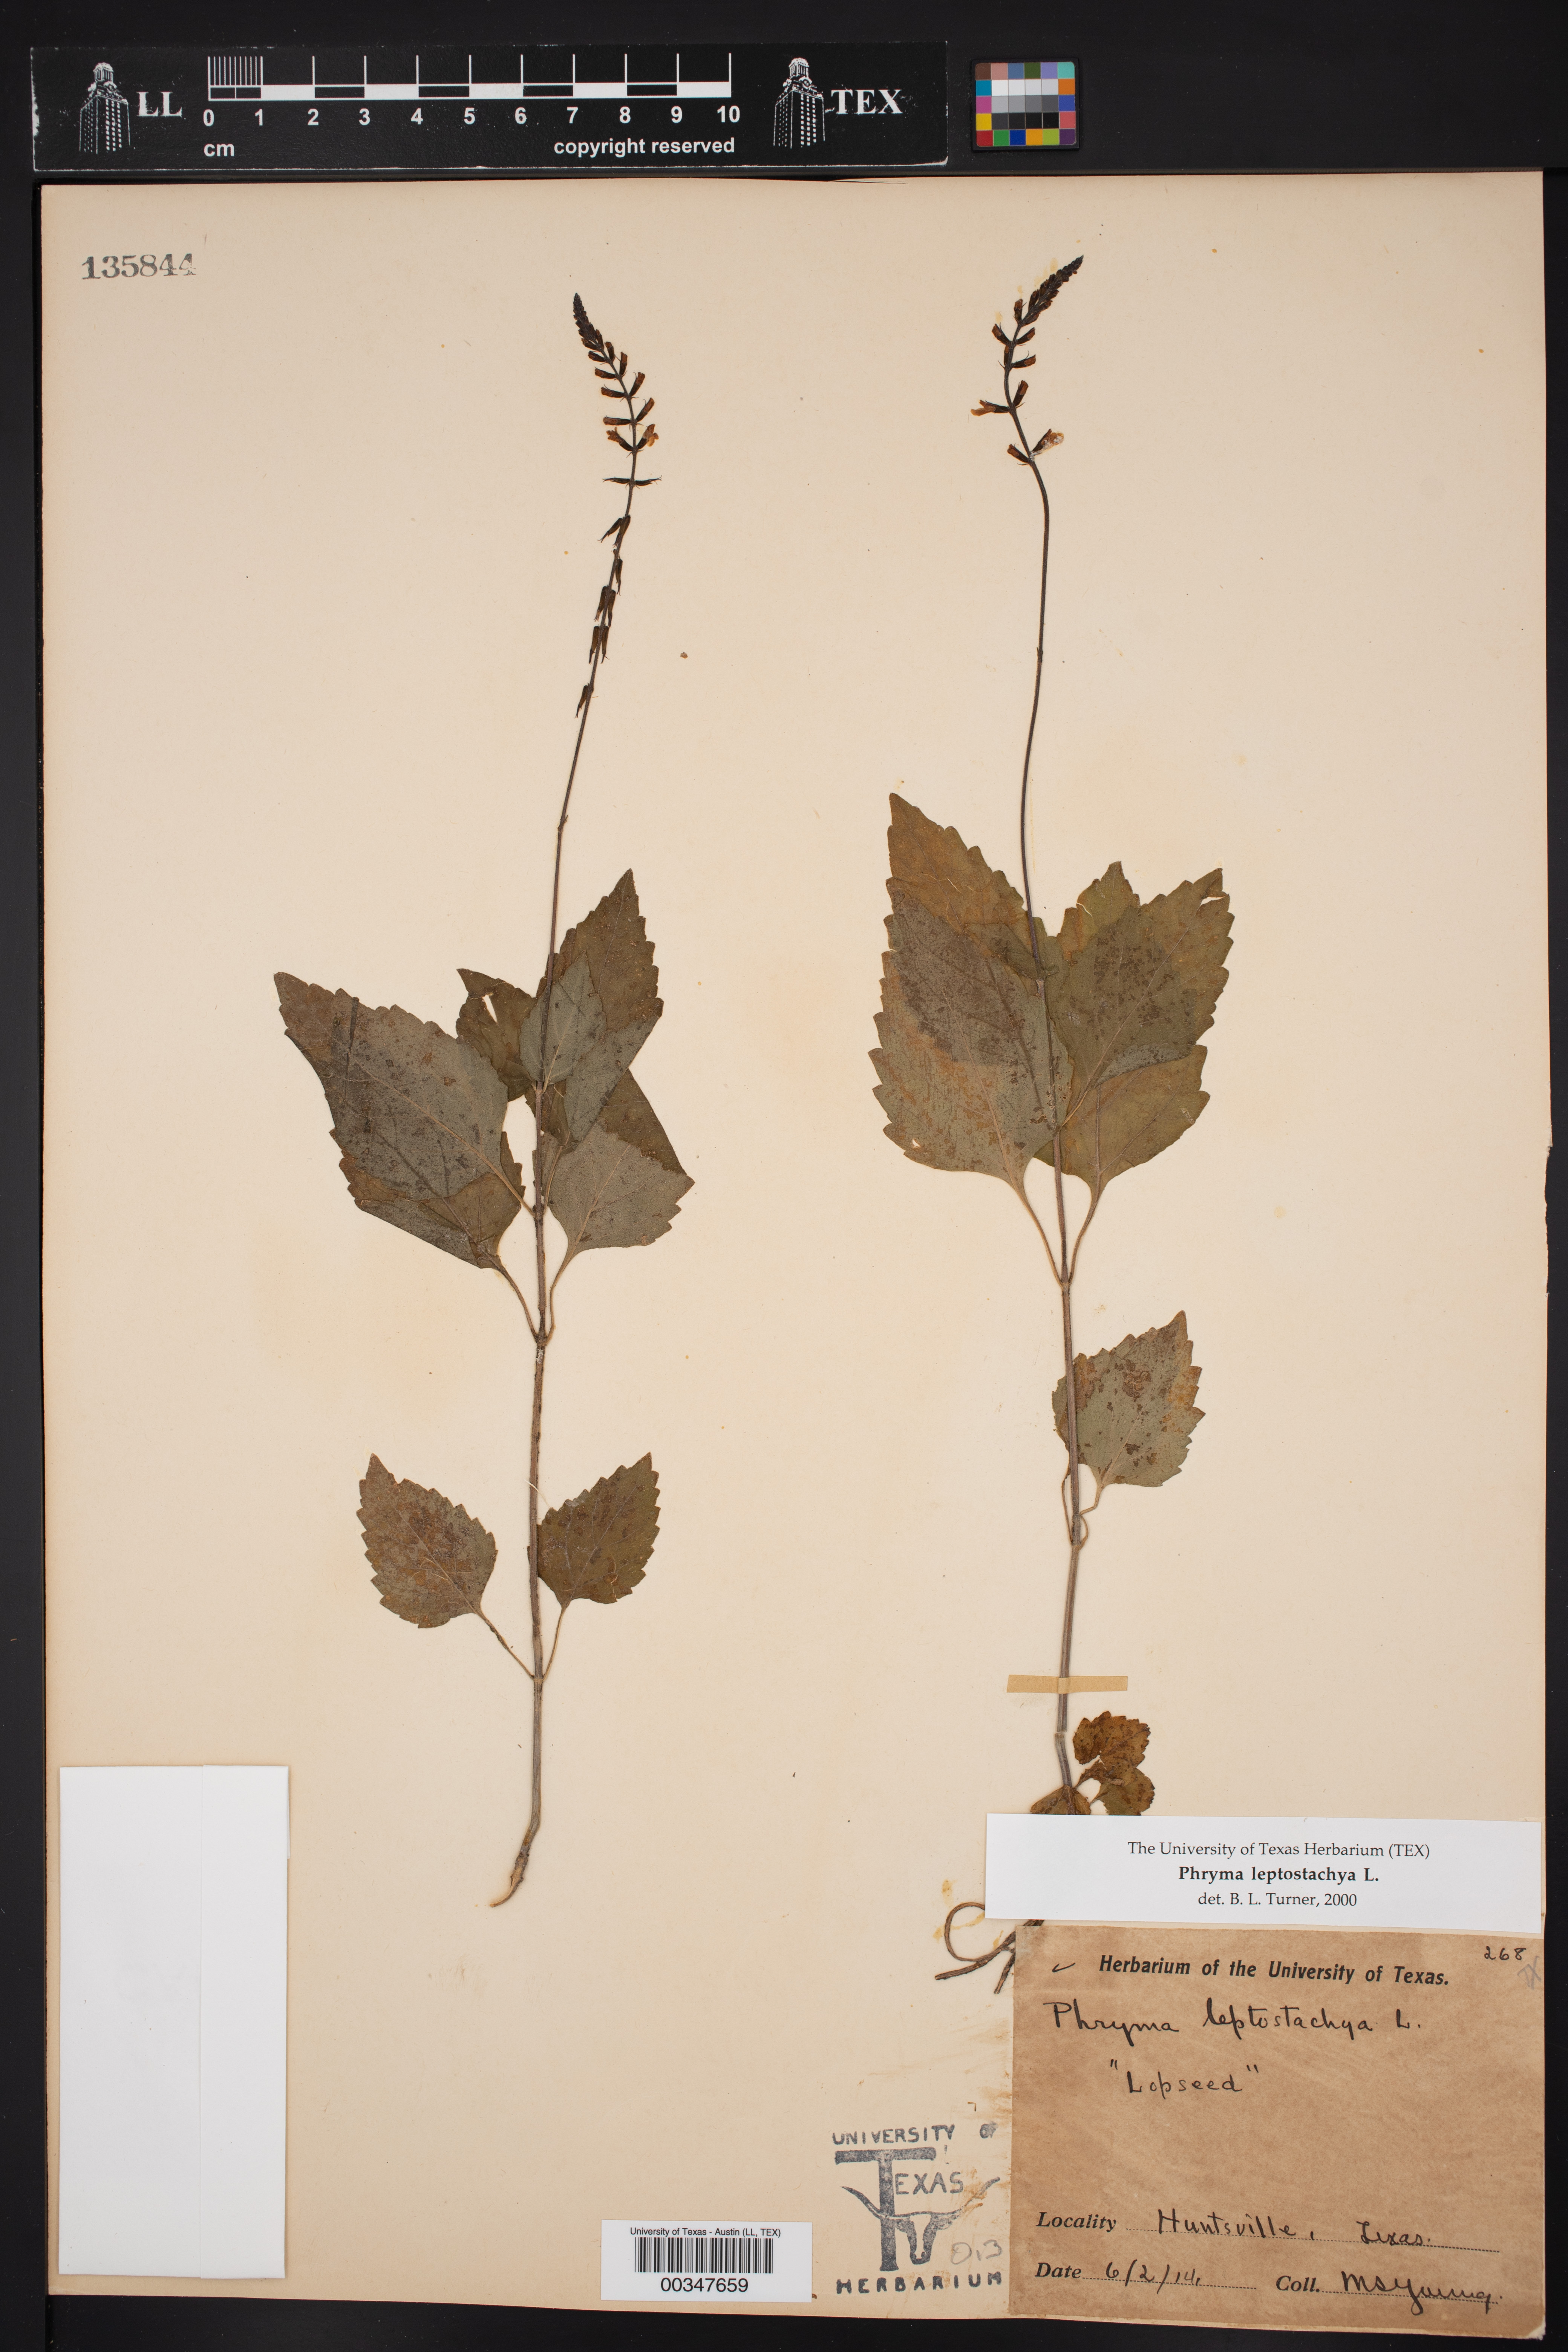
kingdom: Plantae
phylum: Tracheophyta
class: Magnoliopsida
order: Lamiales
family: Phrymaceae
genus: Phryma
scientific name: Phryma leptostachya
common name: American lopseed
